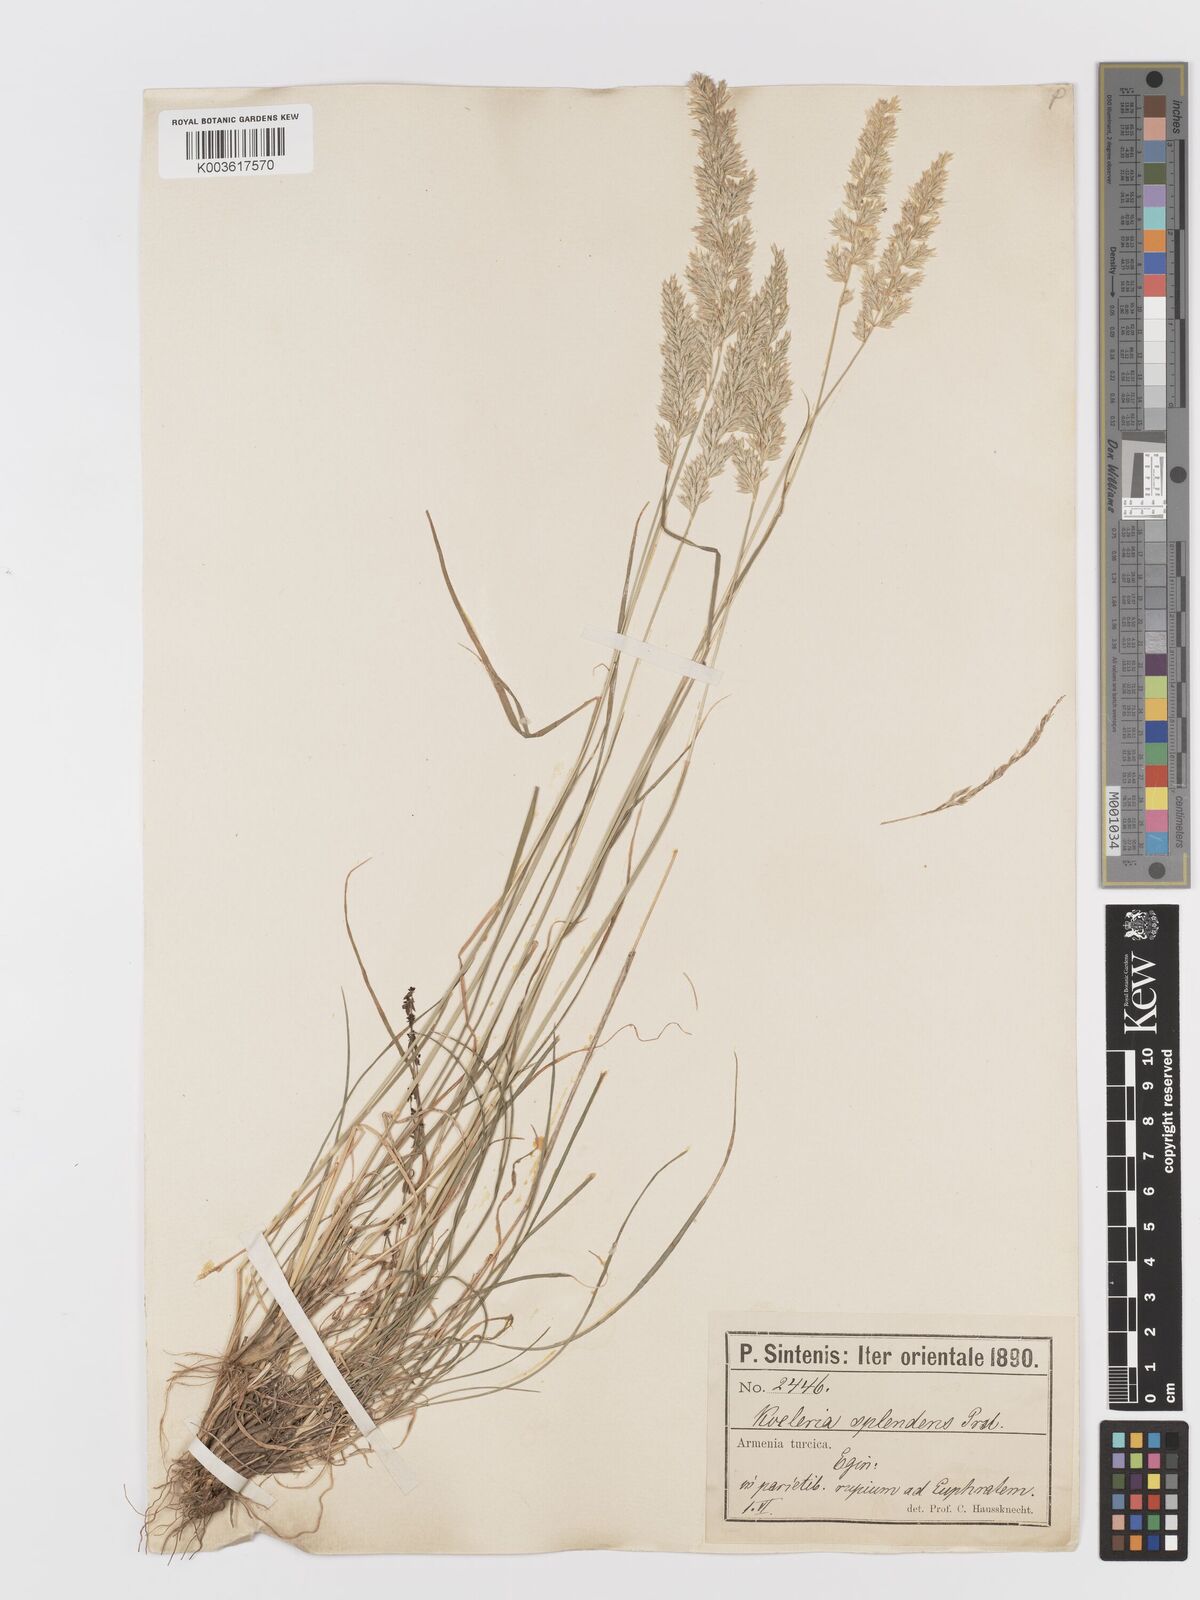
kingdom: Plantae
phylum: Tracheophyta
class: Liliopsida
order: Poales
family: Poaceae
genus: Koeleria
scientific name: Koeleria nitidula
